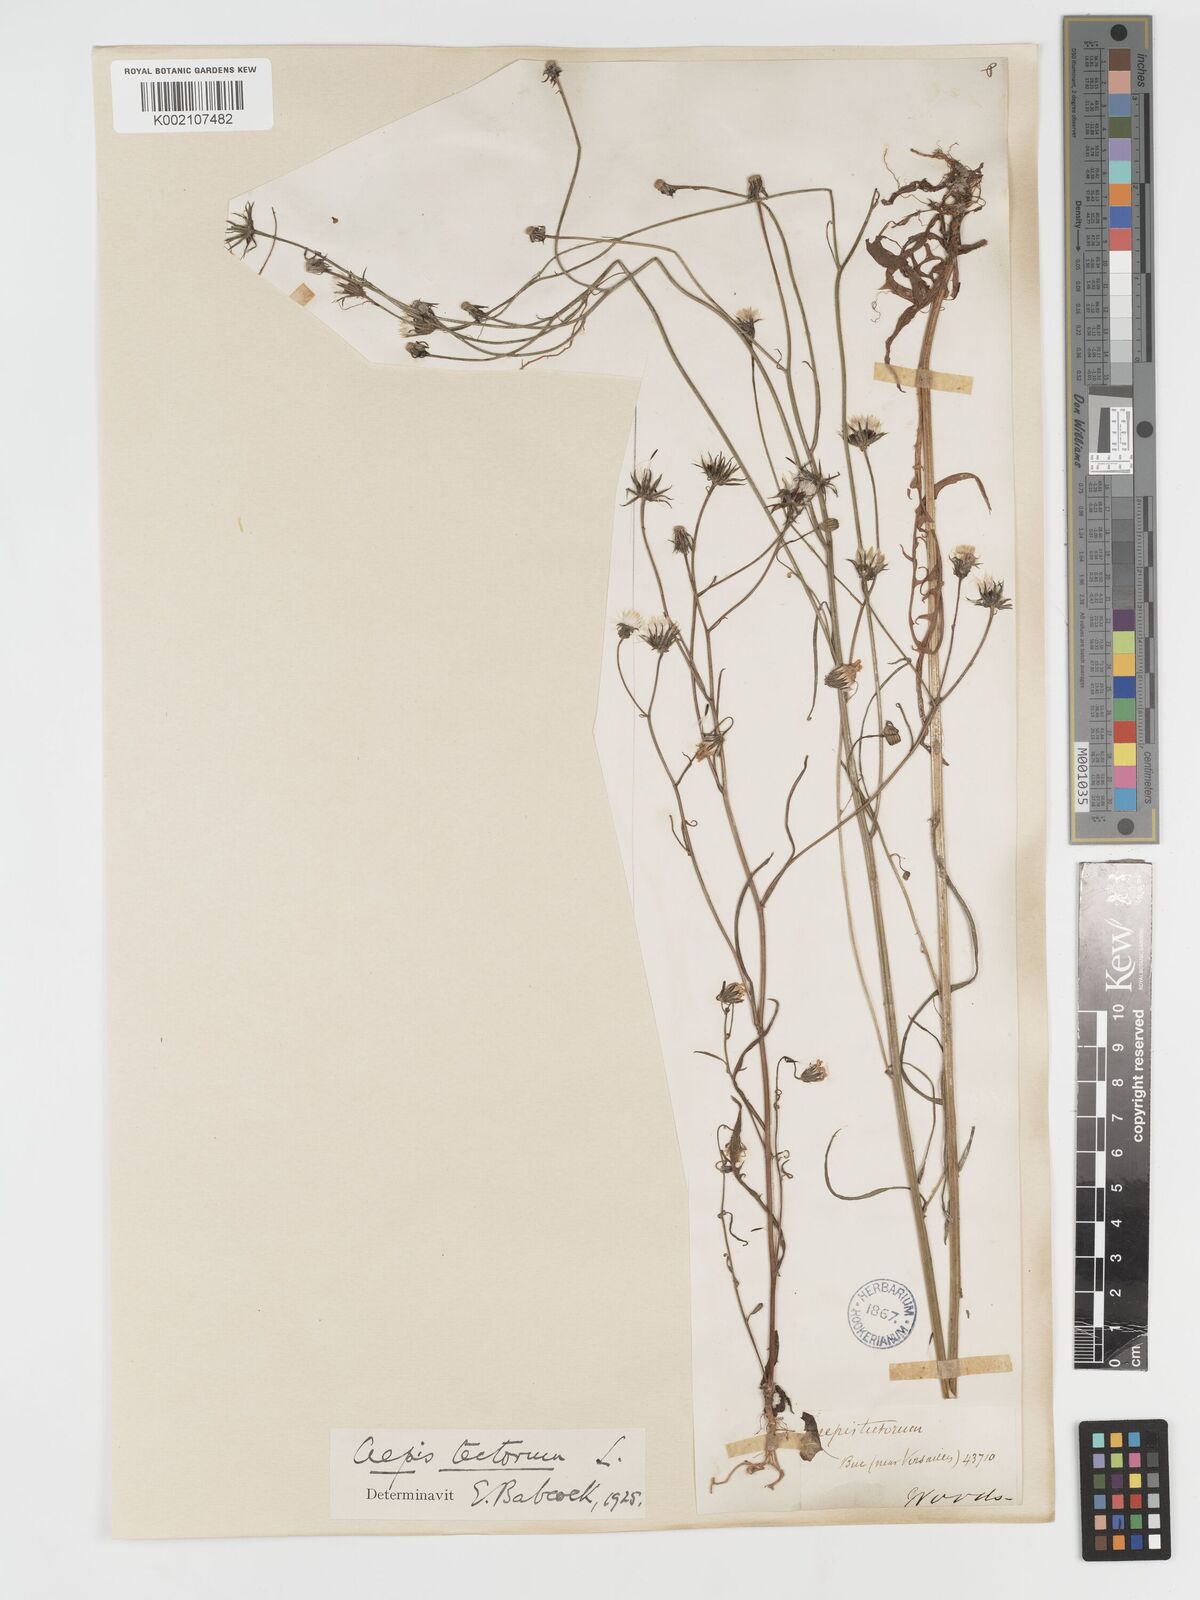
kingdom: Plantae
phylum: Tracheophyta
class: Magnoliopsida
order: Asterales
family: Asteraceae
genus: Crepis
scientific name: Crepis tectorum
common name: Narrow-leaved hawk's-beard
